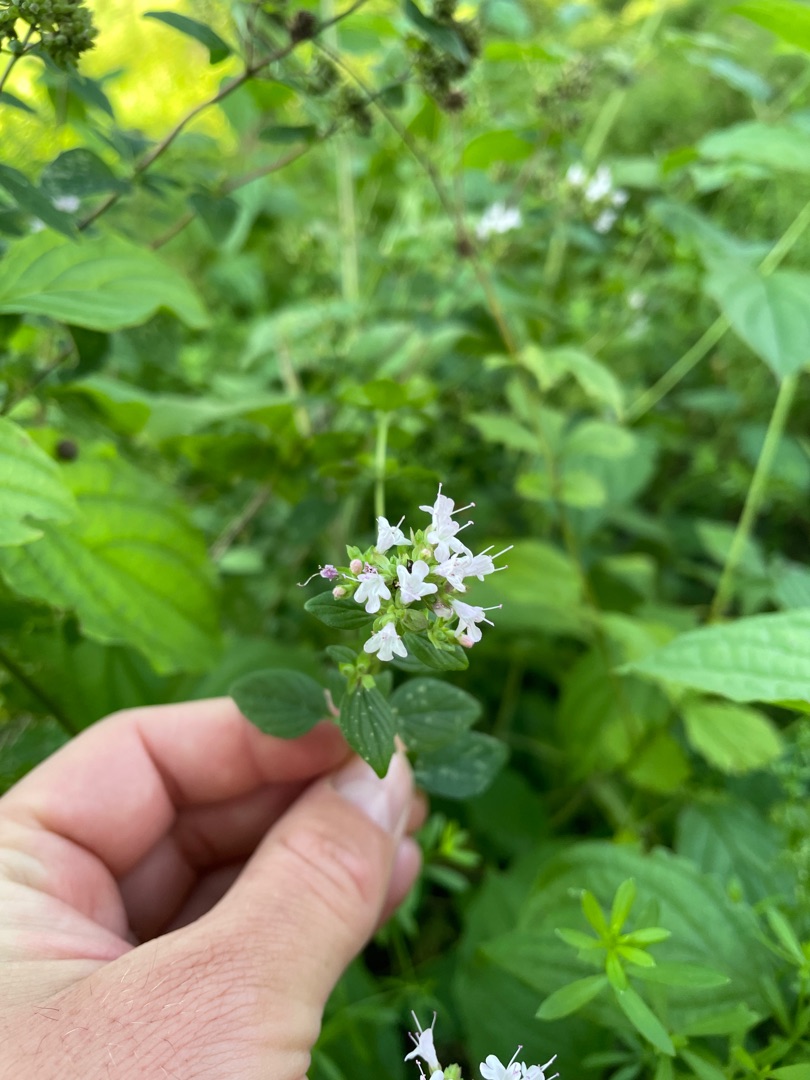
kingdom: Plantae
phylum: Tracheophyta
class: Magnoliopsida
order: Lamiales
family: Lamiaceae
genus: Origanum
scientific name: Origanum vulgare
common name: Merian
